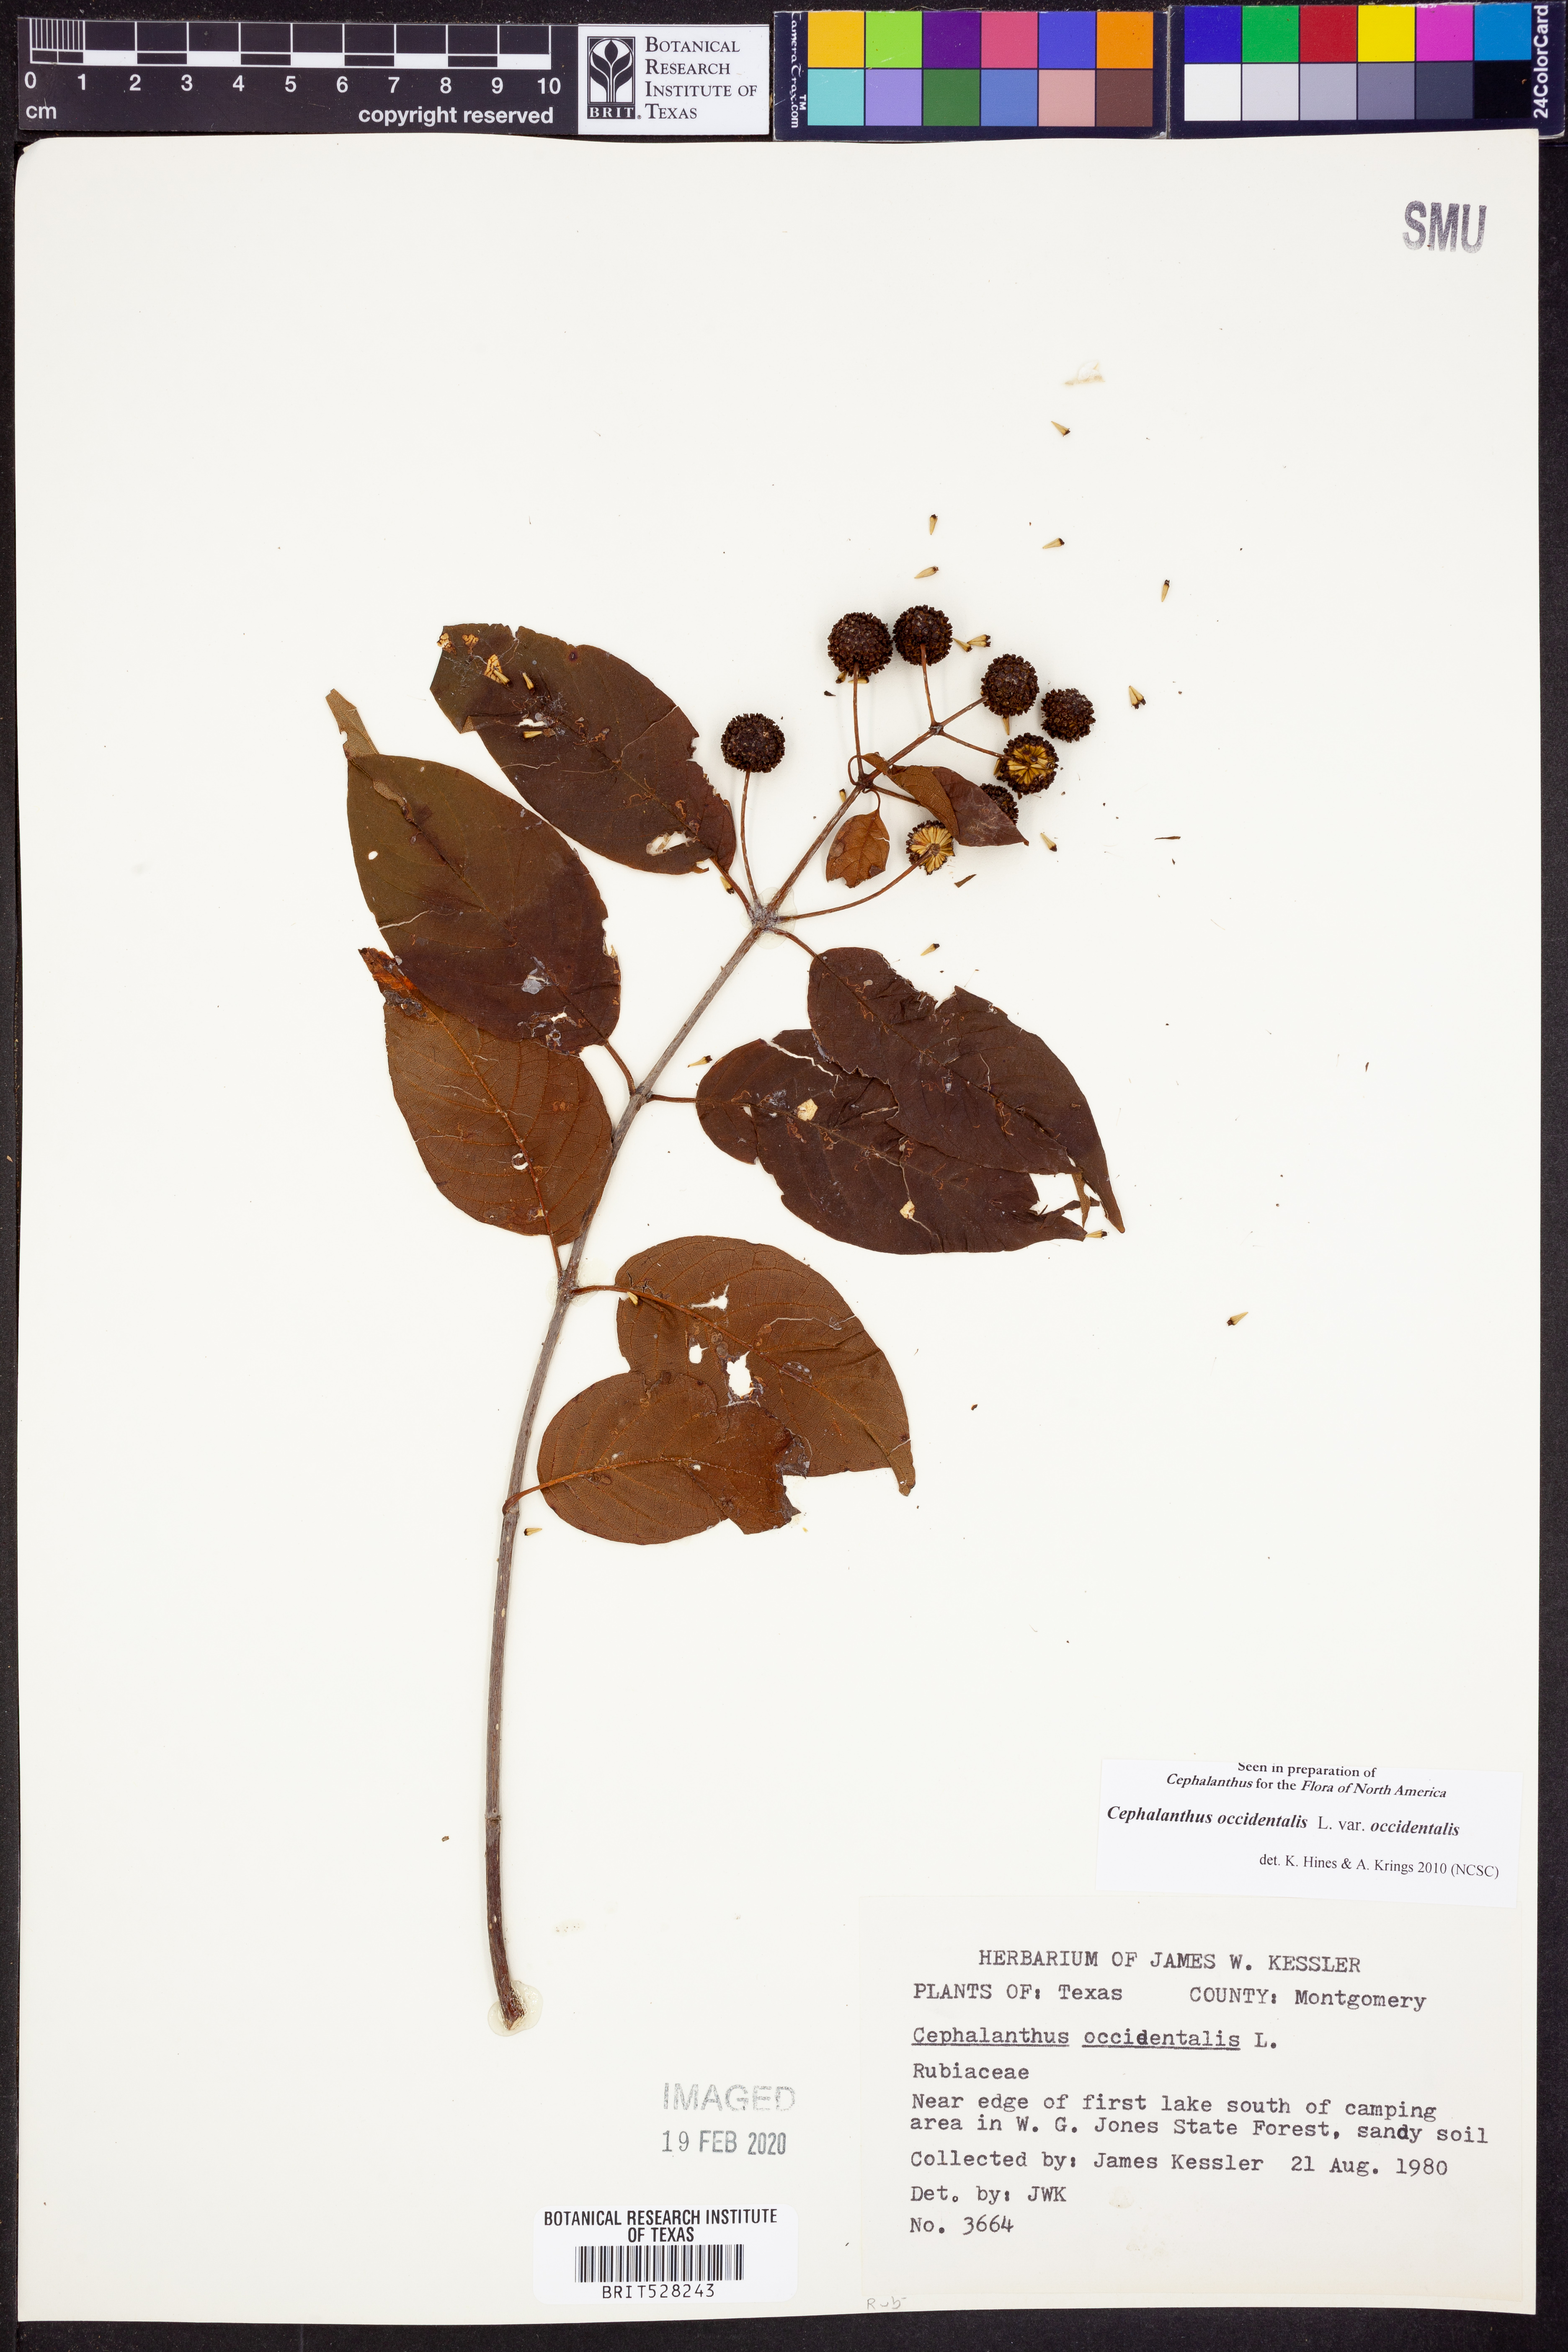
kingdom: Plantae
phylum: Tracheophyta
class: Magnoliopsida
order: Gentianales
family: Rubiaceae
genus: Cephalanthus
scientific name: Cephalanthus occidentalis
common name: Button-willow
